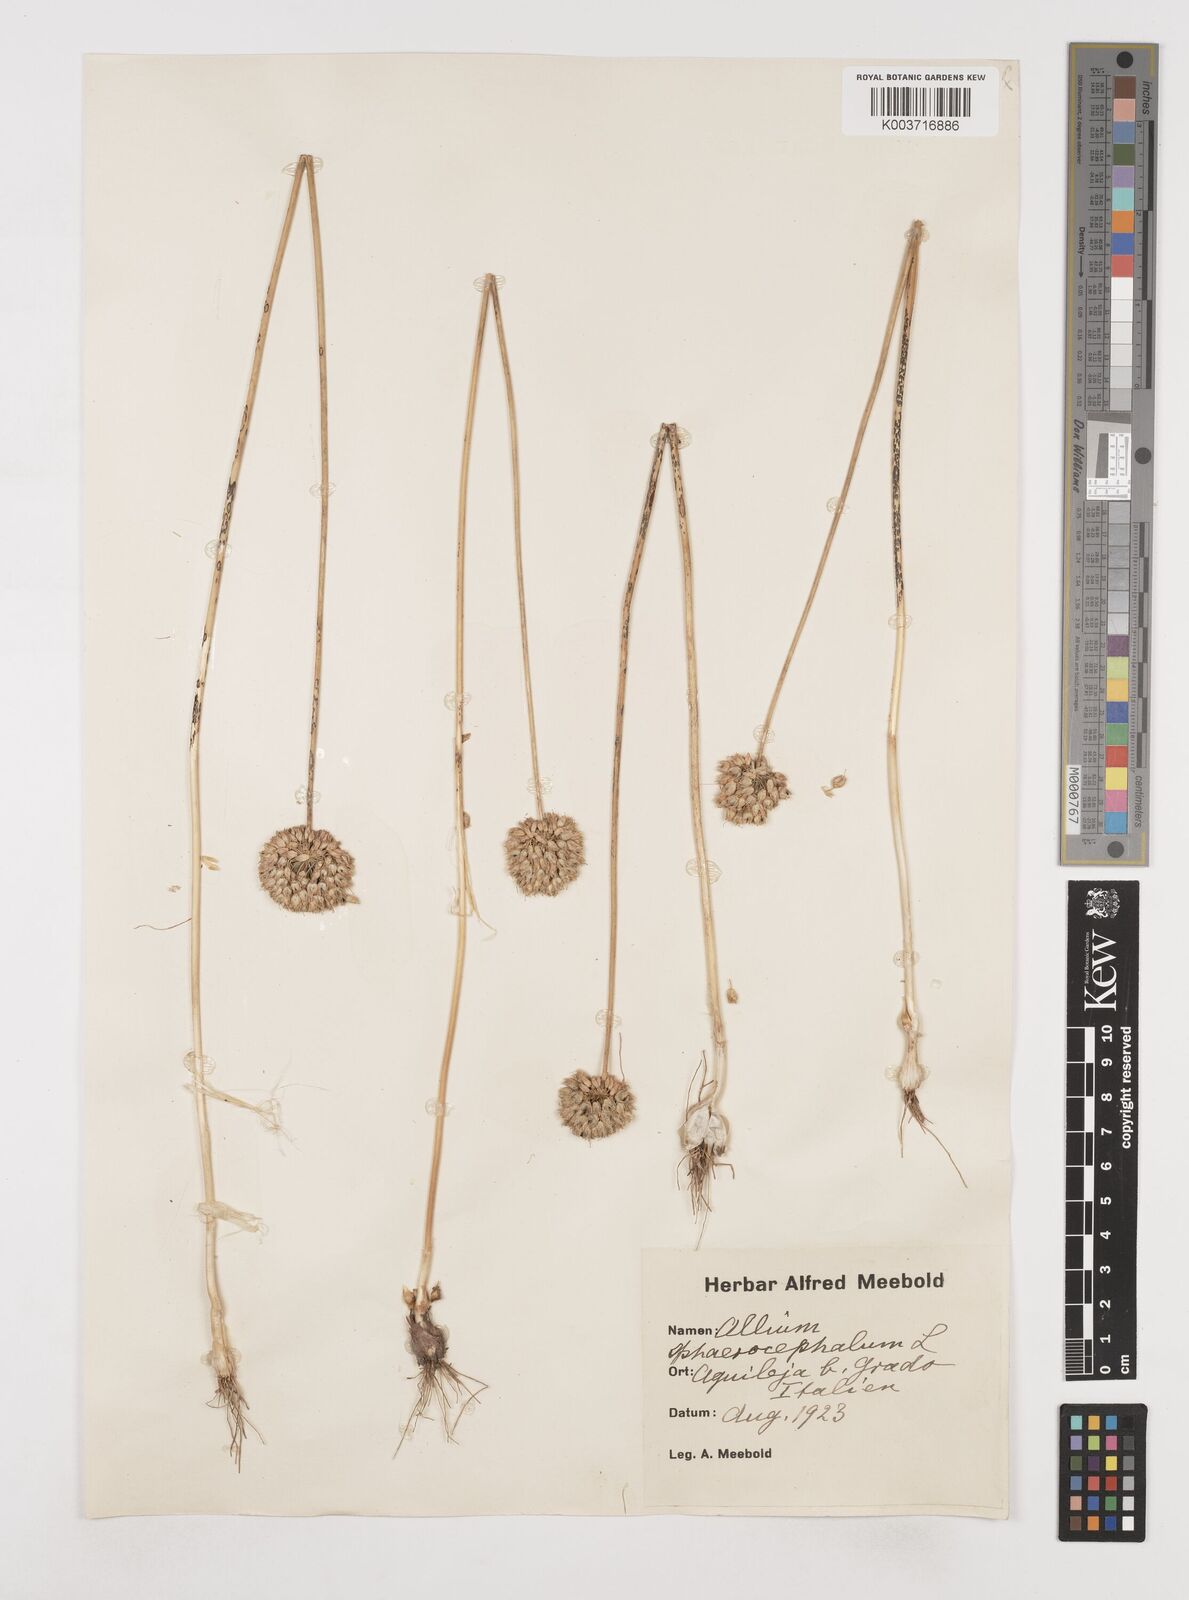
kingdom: Plantae
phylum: Tracheophyta
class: Liliopsida
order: Asparagales
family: Amaryllidaceae
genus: Allium
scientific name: Allium sphaerocephalon
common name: Round-headed leek
